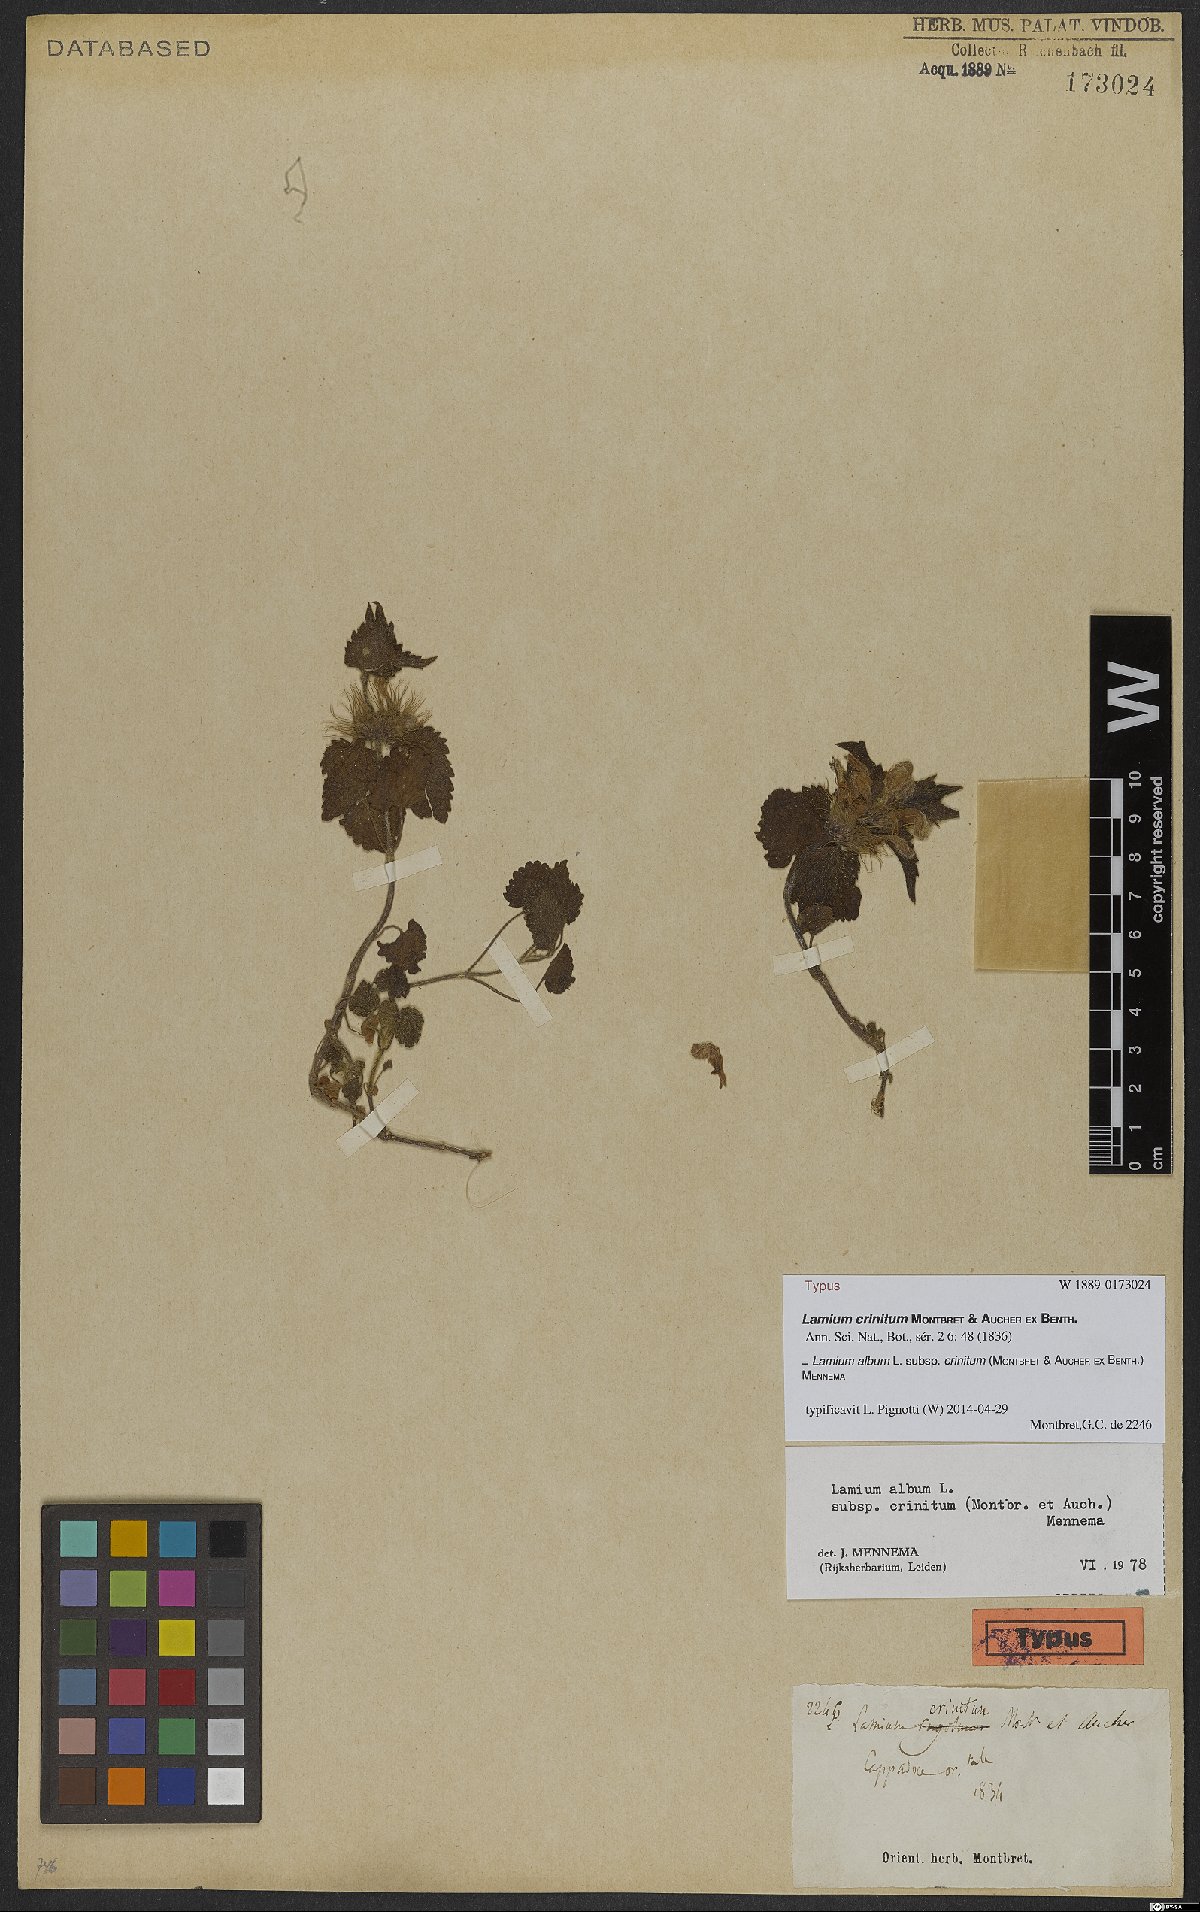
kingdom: Plantae
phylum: Tracheophyta
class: Magnoliopsida
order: Lamiales
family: Lamiaceae
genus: Lamium
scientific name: Lamium album
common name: White dead-nettle
